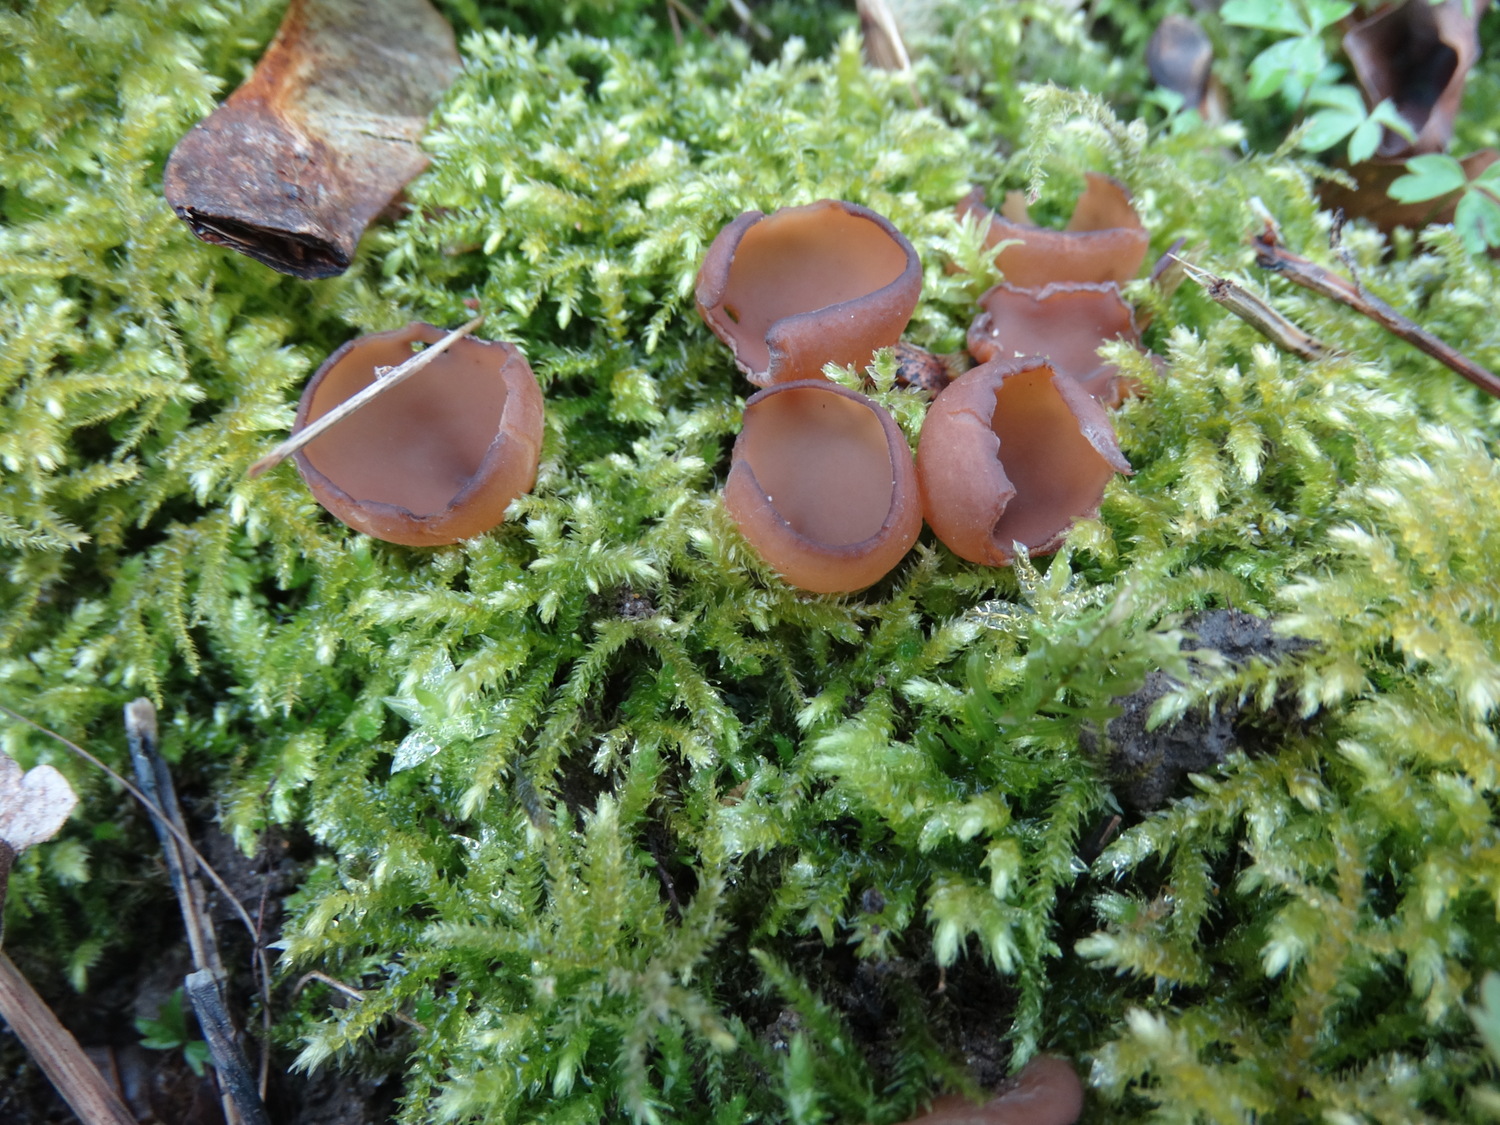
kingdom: Fungi
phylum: Ascomycota
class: Leotiomycetes
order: Helotiales
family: Sclerotiniaceae
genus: Dumontinia
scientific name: Dumontinia tuberosa
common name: anemone-knoldskive
